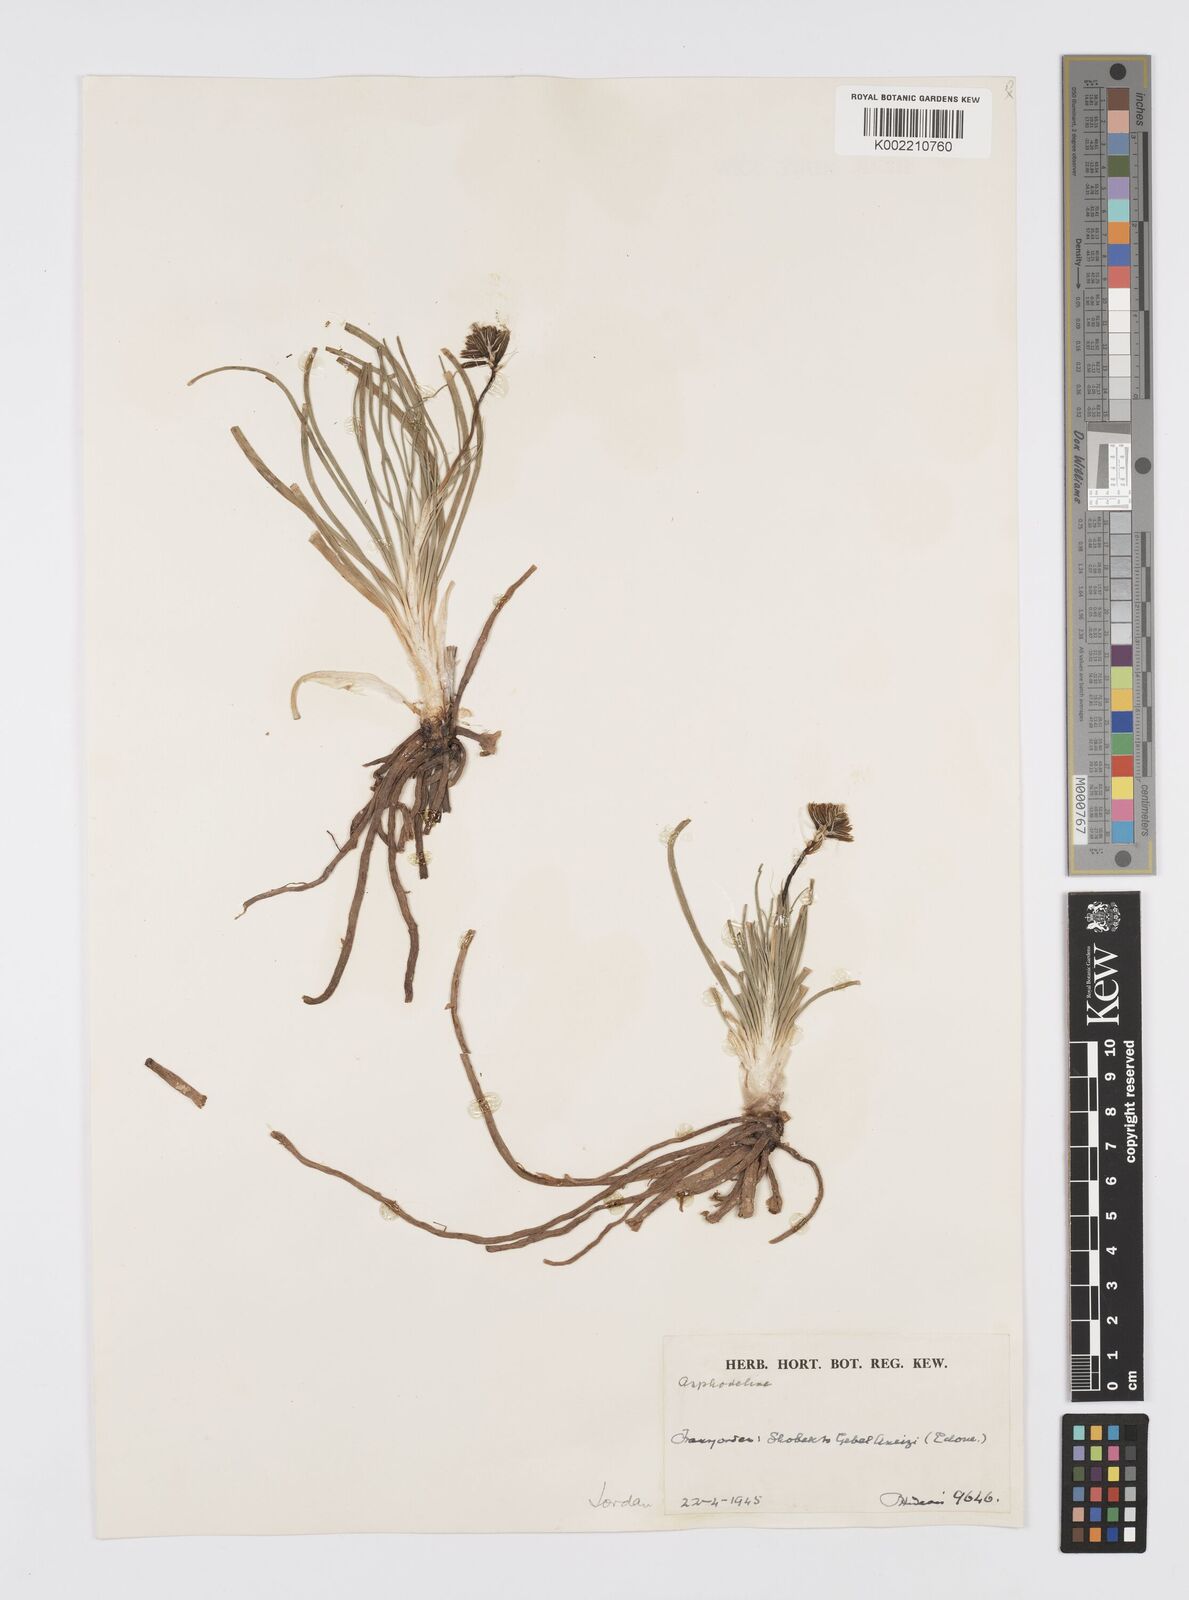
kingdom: Plantae
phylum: Tracheophyta
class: Liliopsida
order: Asparagales
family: Asphodelaceae
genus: Asphodeline
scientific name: Asphodeline
